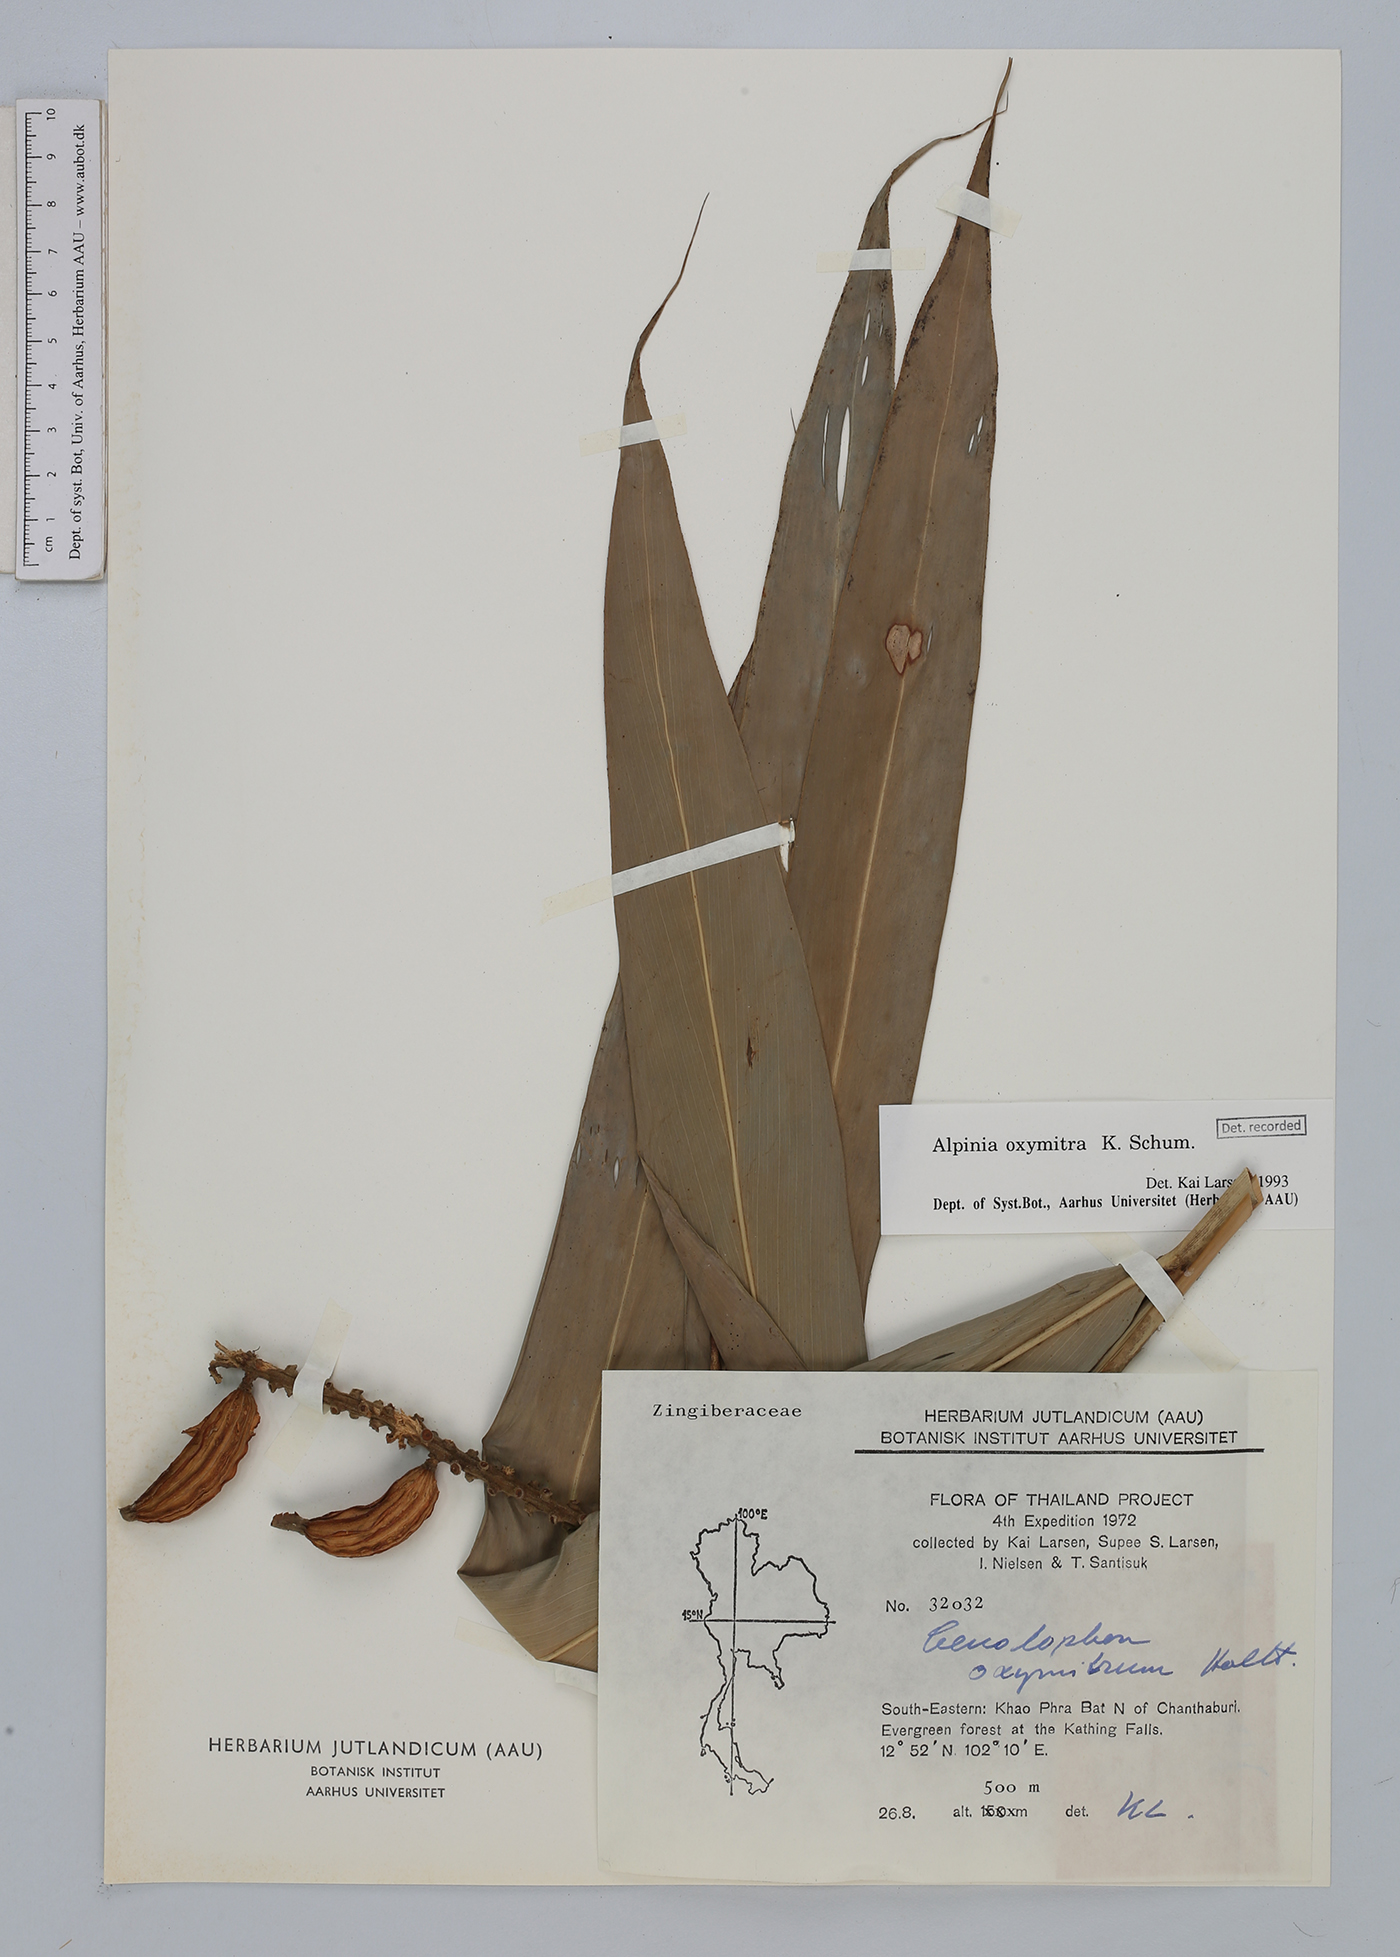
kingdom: Plantae
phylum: Tracheophyta
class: Liliopsida
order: Zingiberales
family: Zingiberaceae
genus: Alpinia
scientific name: Alpinia oxymitra
